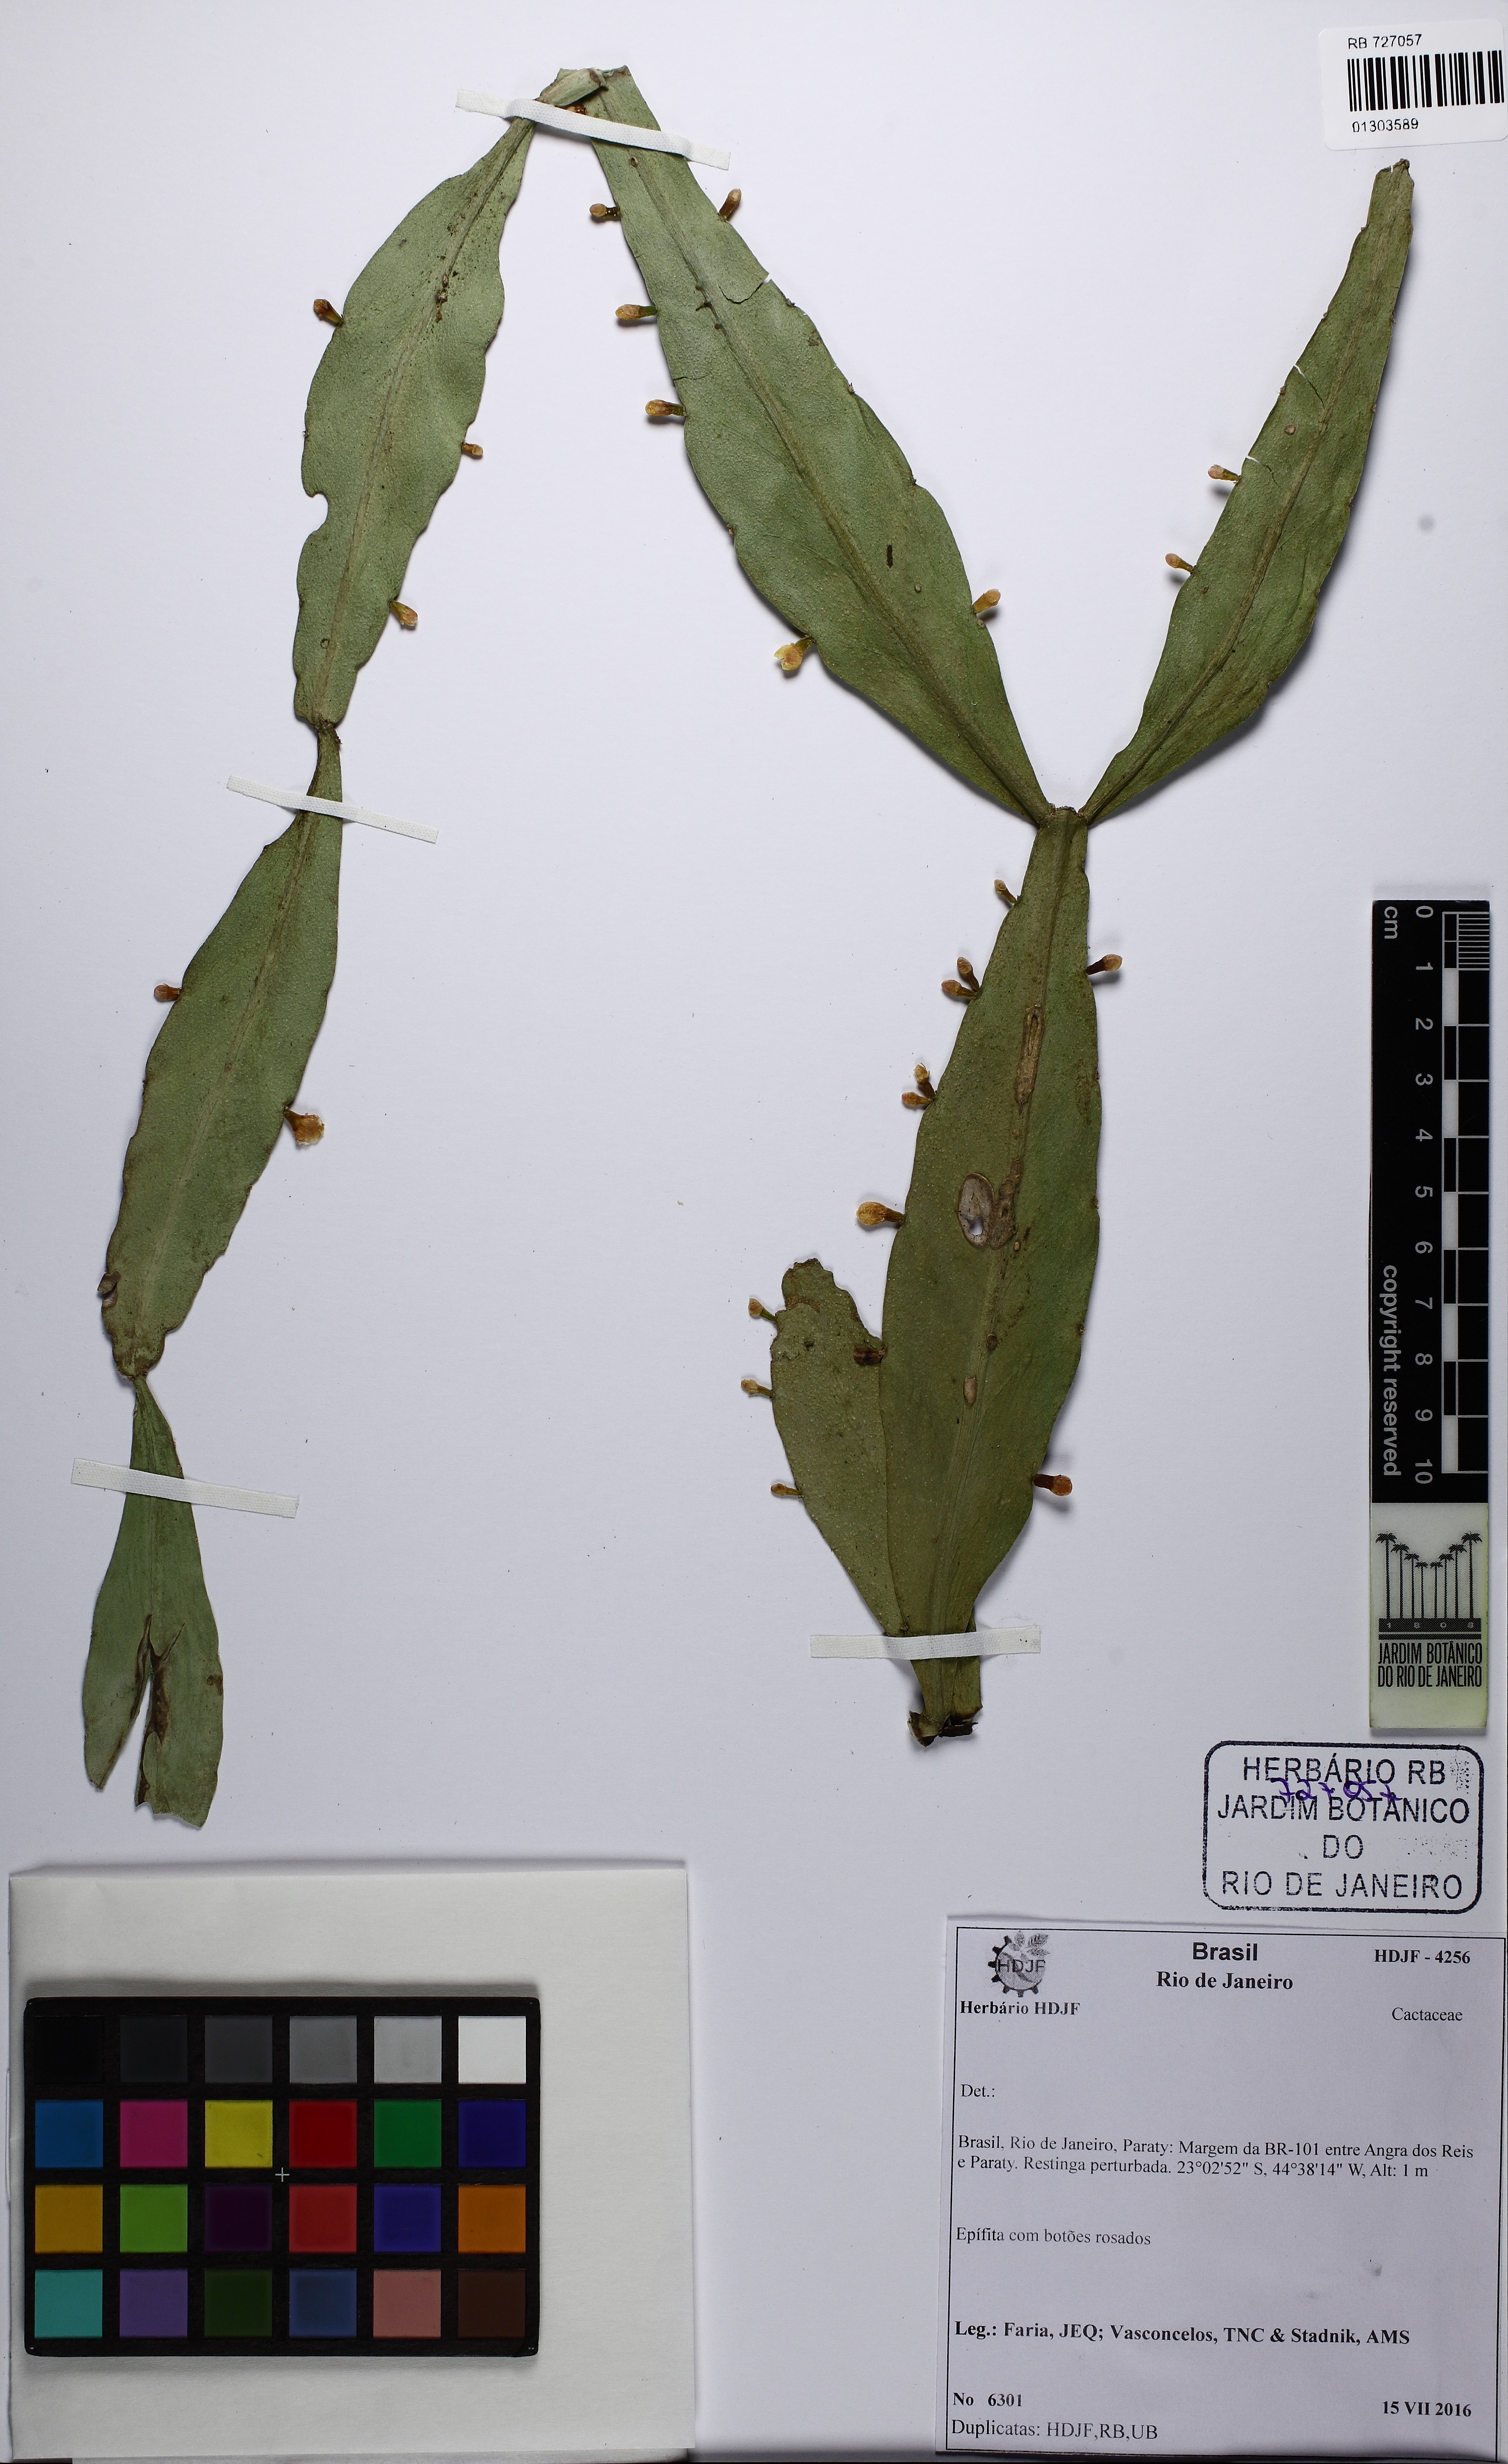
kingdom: Plantae
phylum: Tracheophyta
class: Magnoliopsida
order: Caryophyllales
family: Cactaceae
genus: Rhipsalis
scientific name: Rhipsalis oblonga
